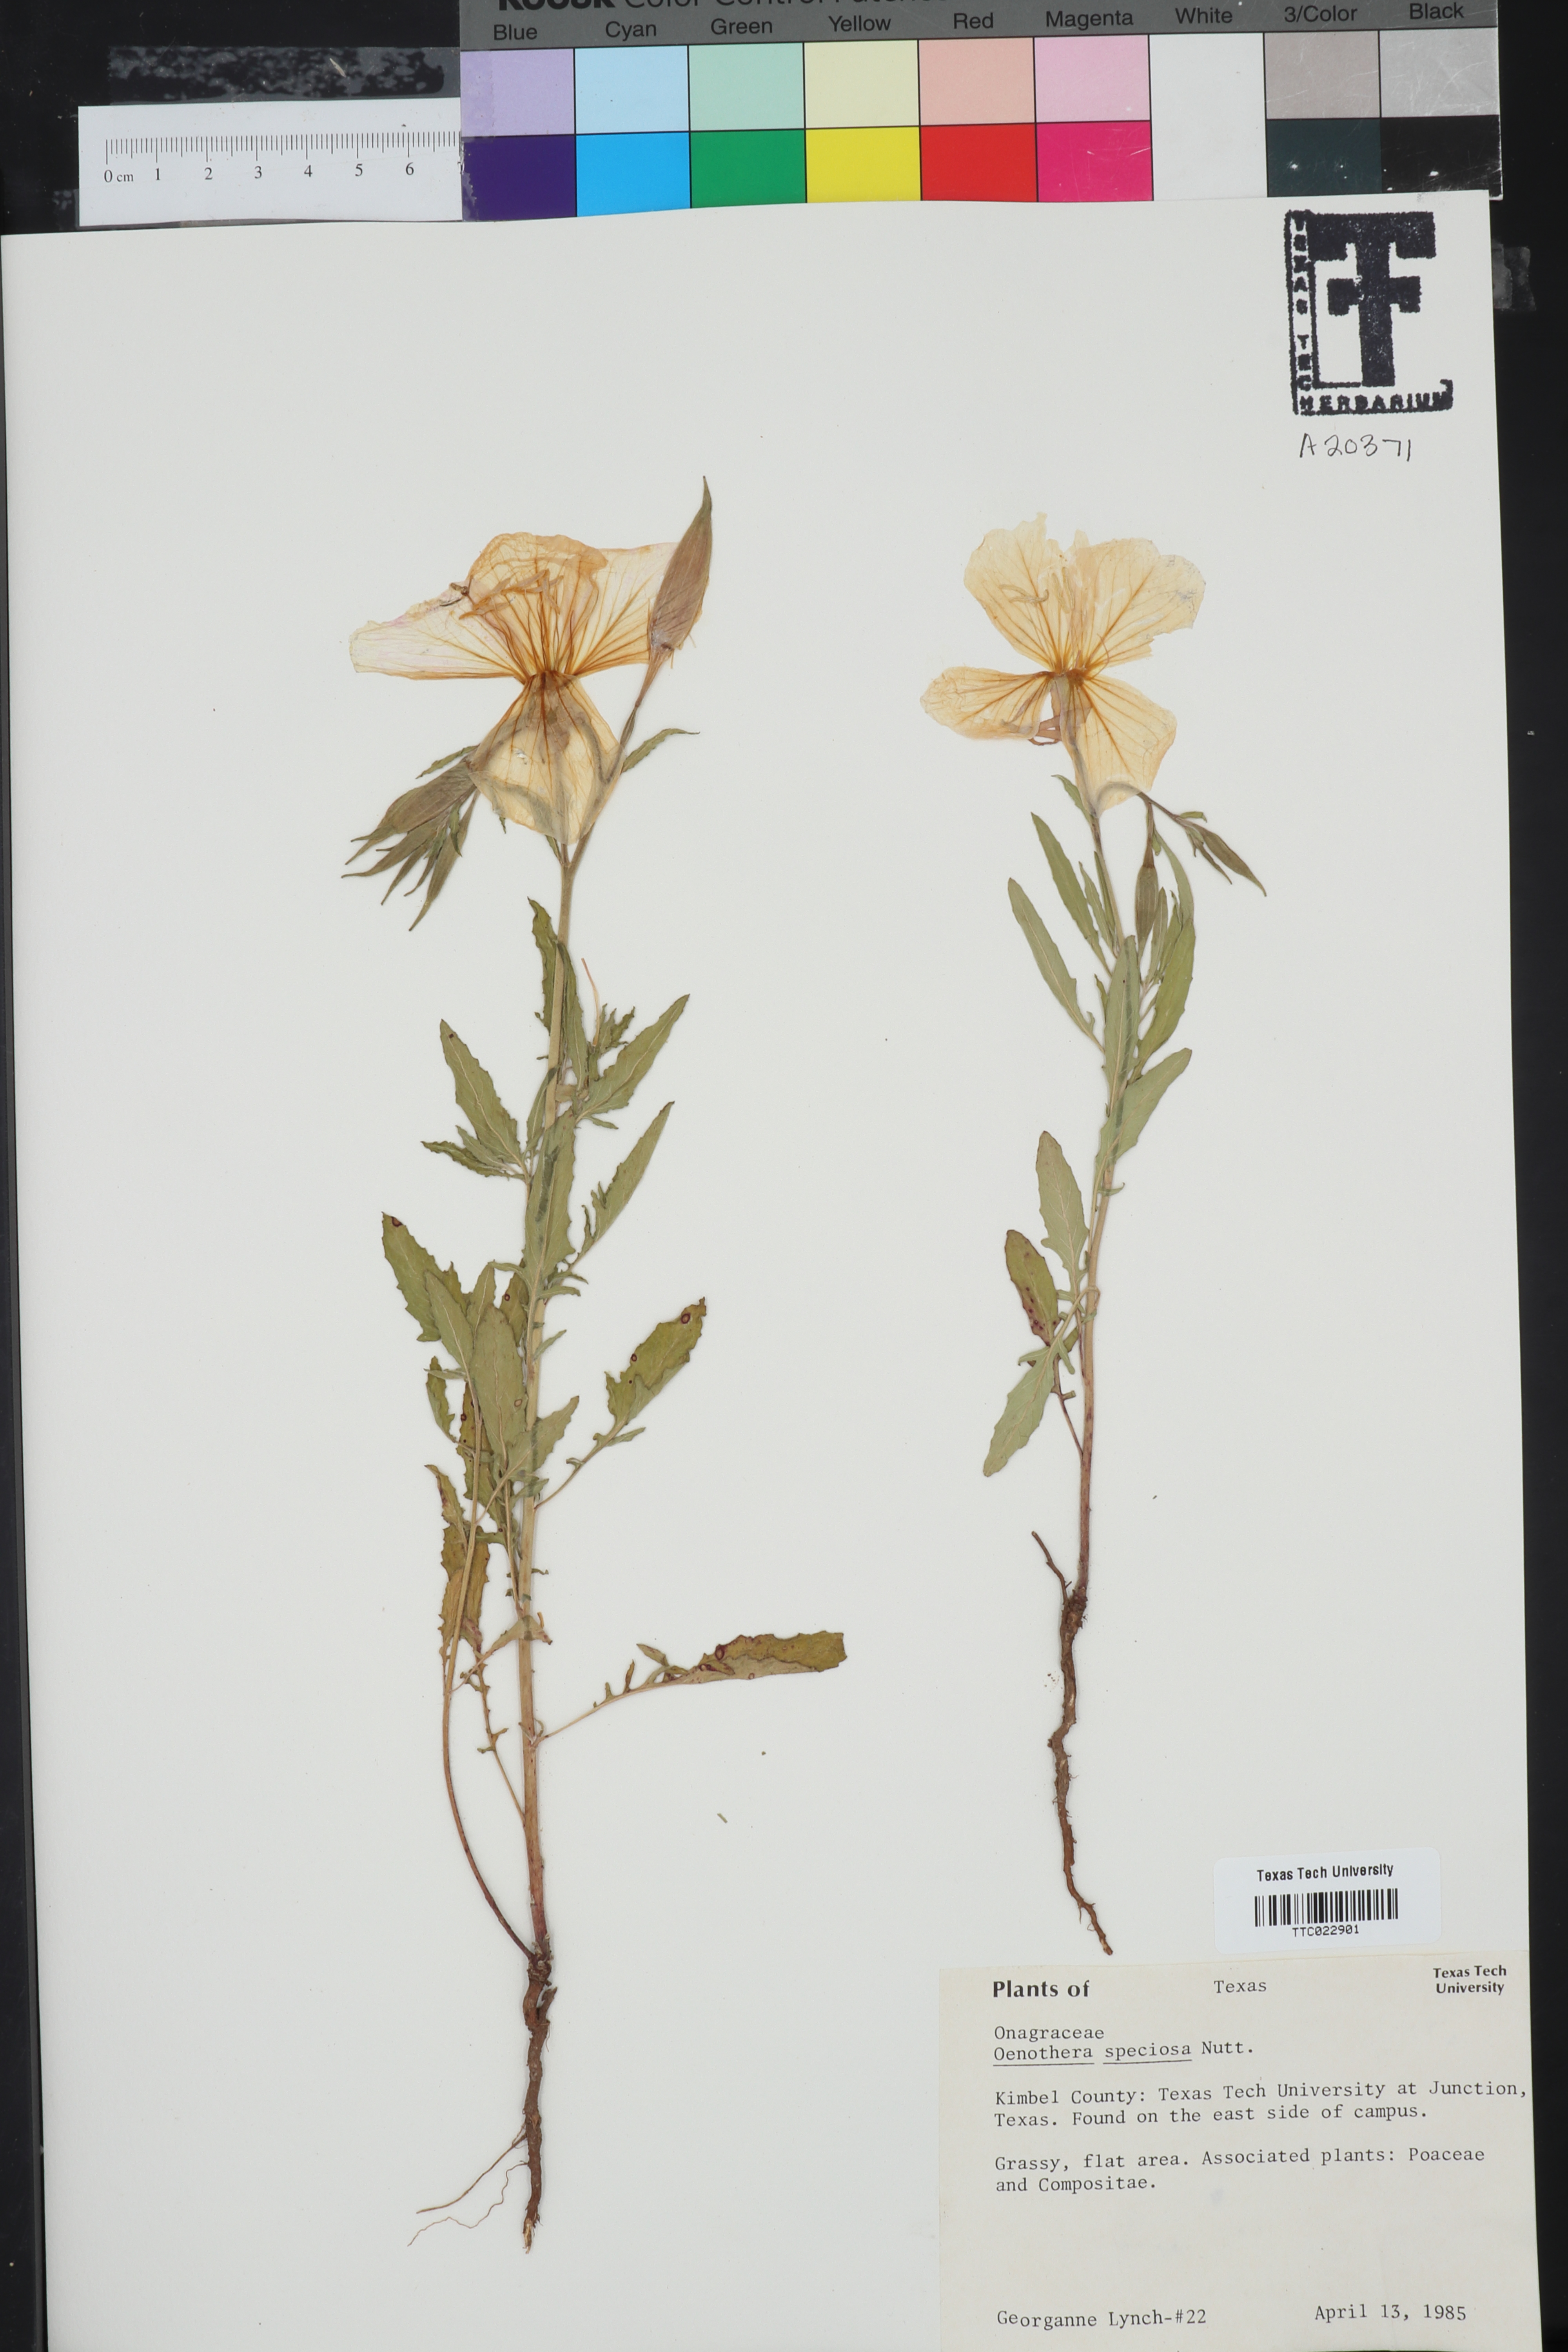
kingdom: Plantae
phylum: Tracheophyta
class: Magnoliopsida
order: Myrtales
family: Onagraceae
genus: Oenothera
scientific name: Oenothera speciosa
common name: White evening-primrose
